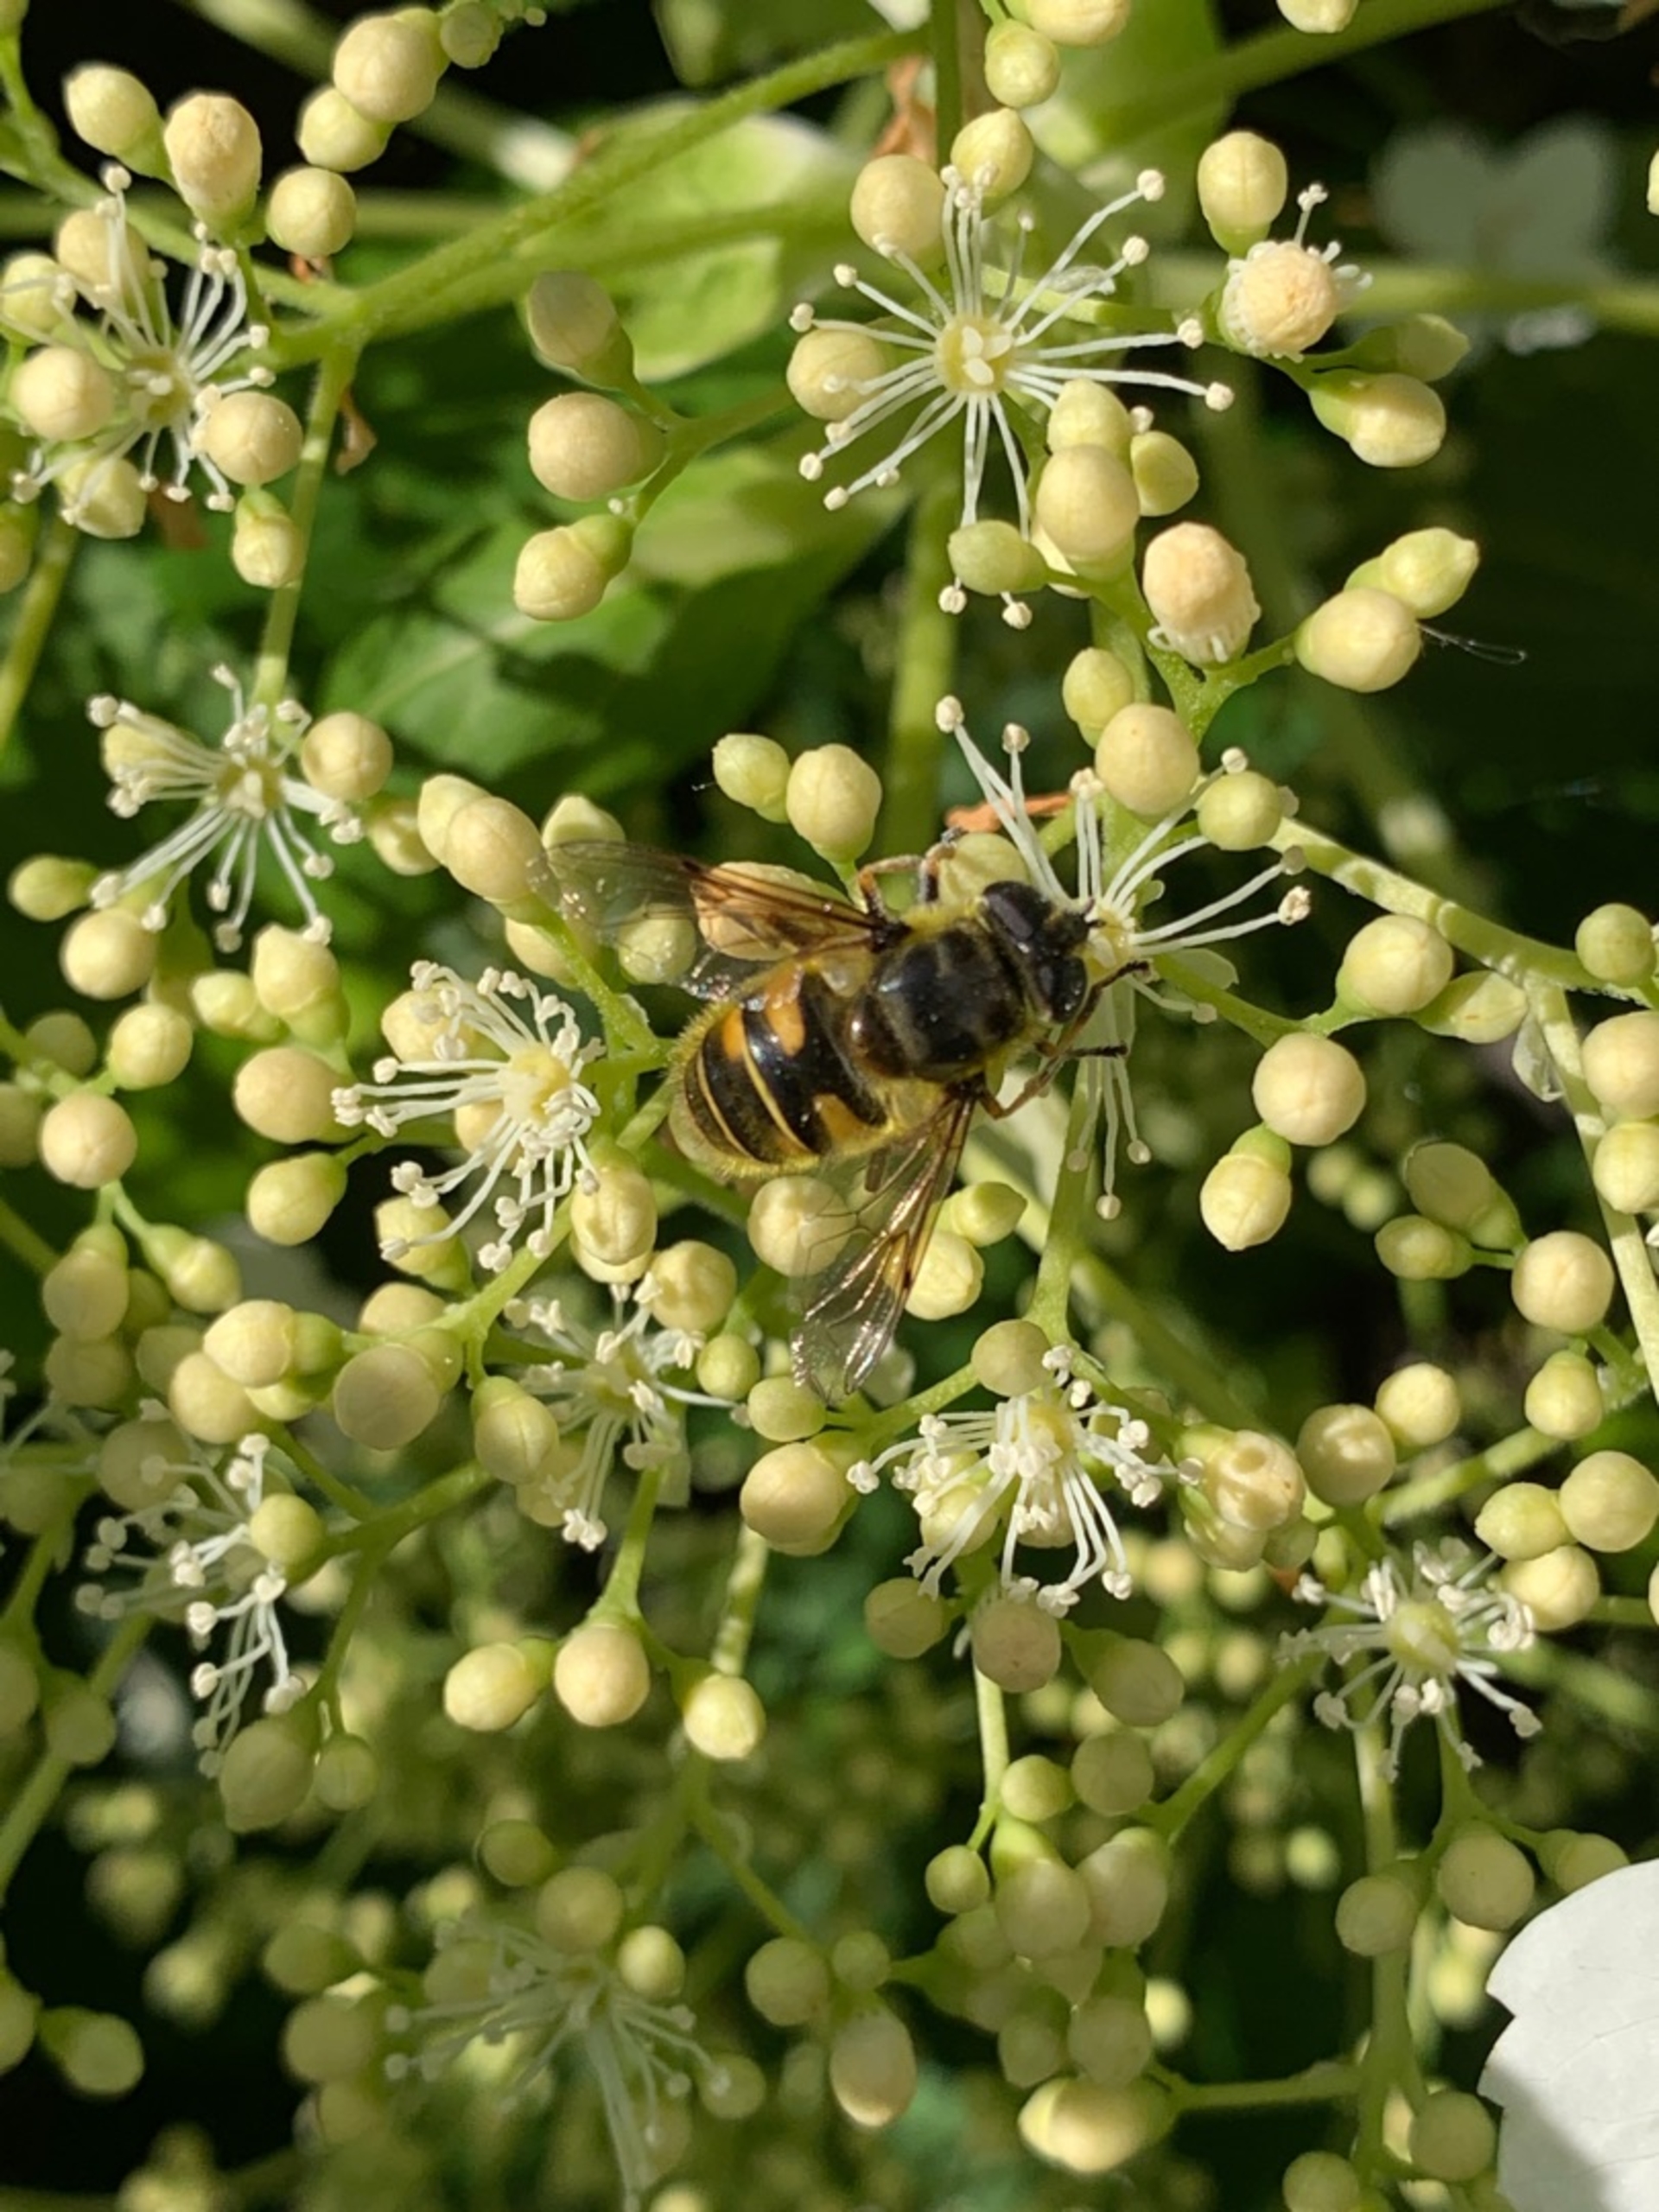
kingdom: Animalia
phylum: Arthropoda
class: Insecta
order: Diptera
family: Syrphidae
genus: Myathropa
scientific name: Myathropa florea
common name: Dødningehoved-svirreflue
